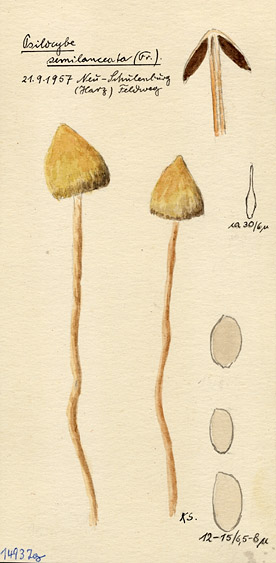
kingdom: Fungi
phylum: Basidiomycota
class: Agaricomycetes
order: Agaricales
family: Hymenogastraceae
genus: Psilocybe
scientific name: Psilocybe semilanceata
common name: Liberty cap
